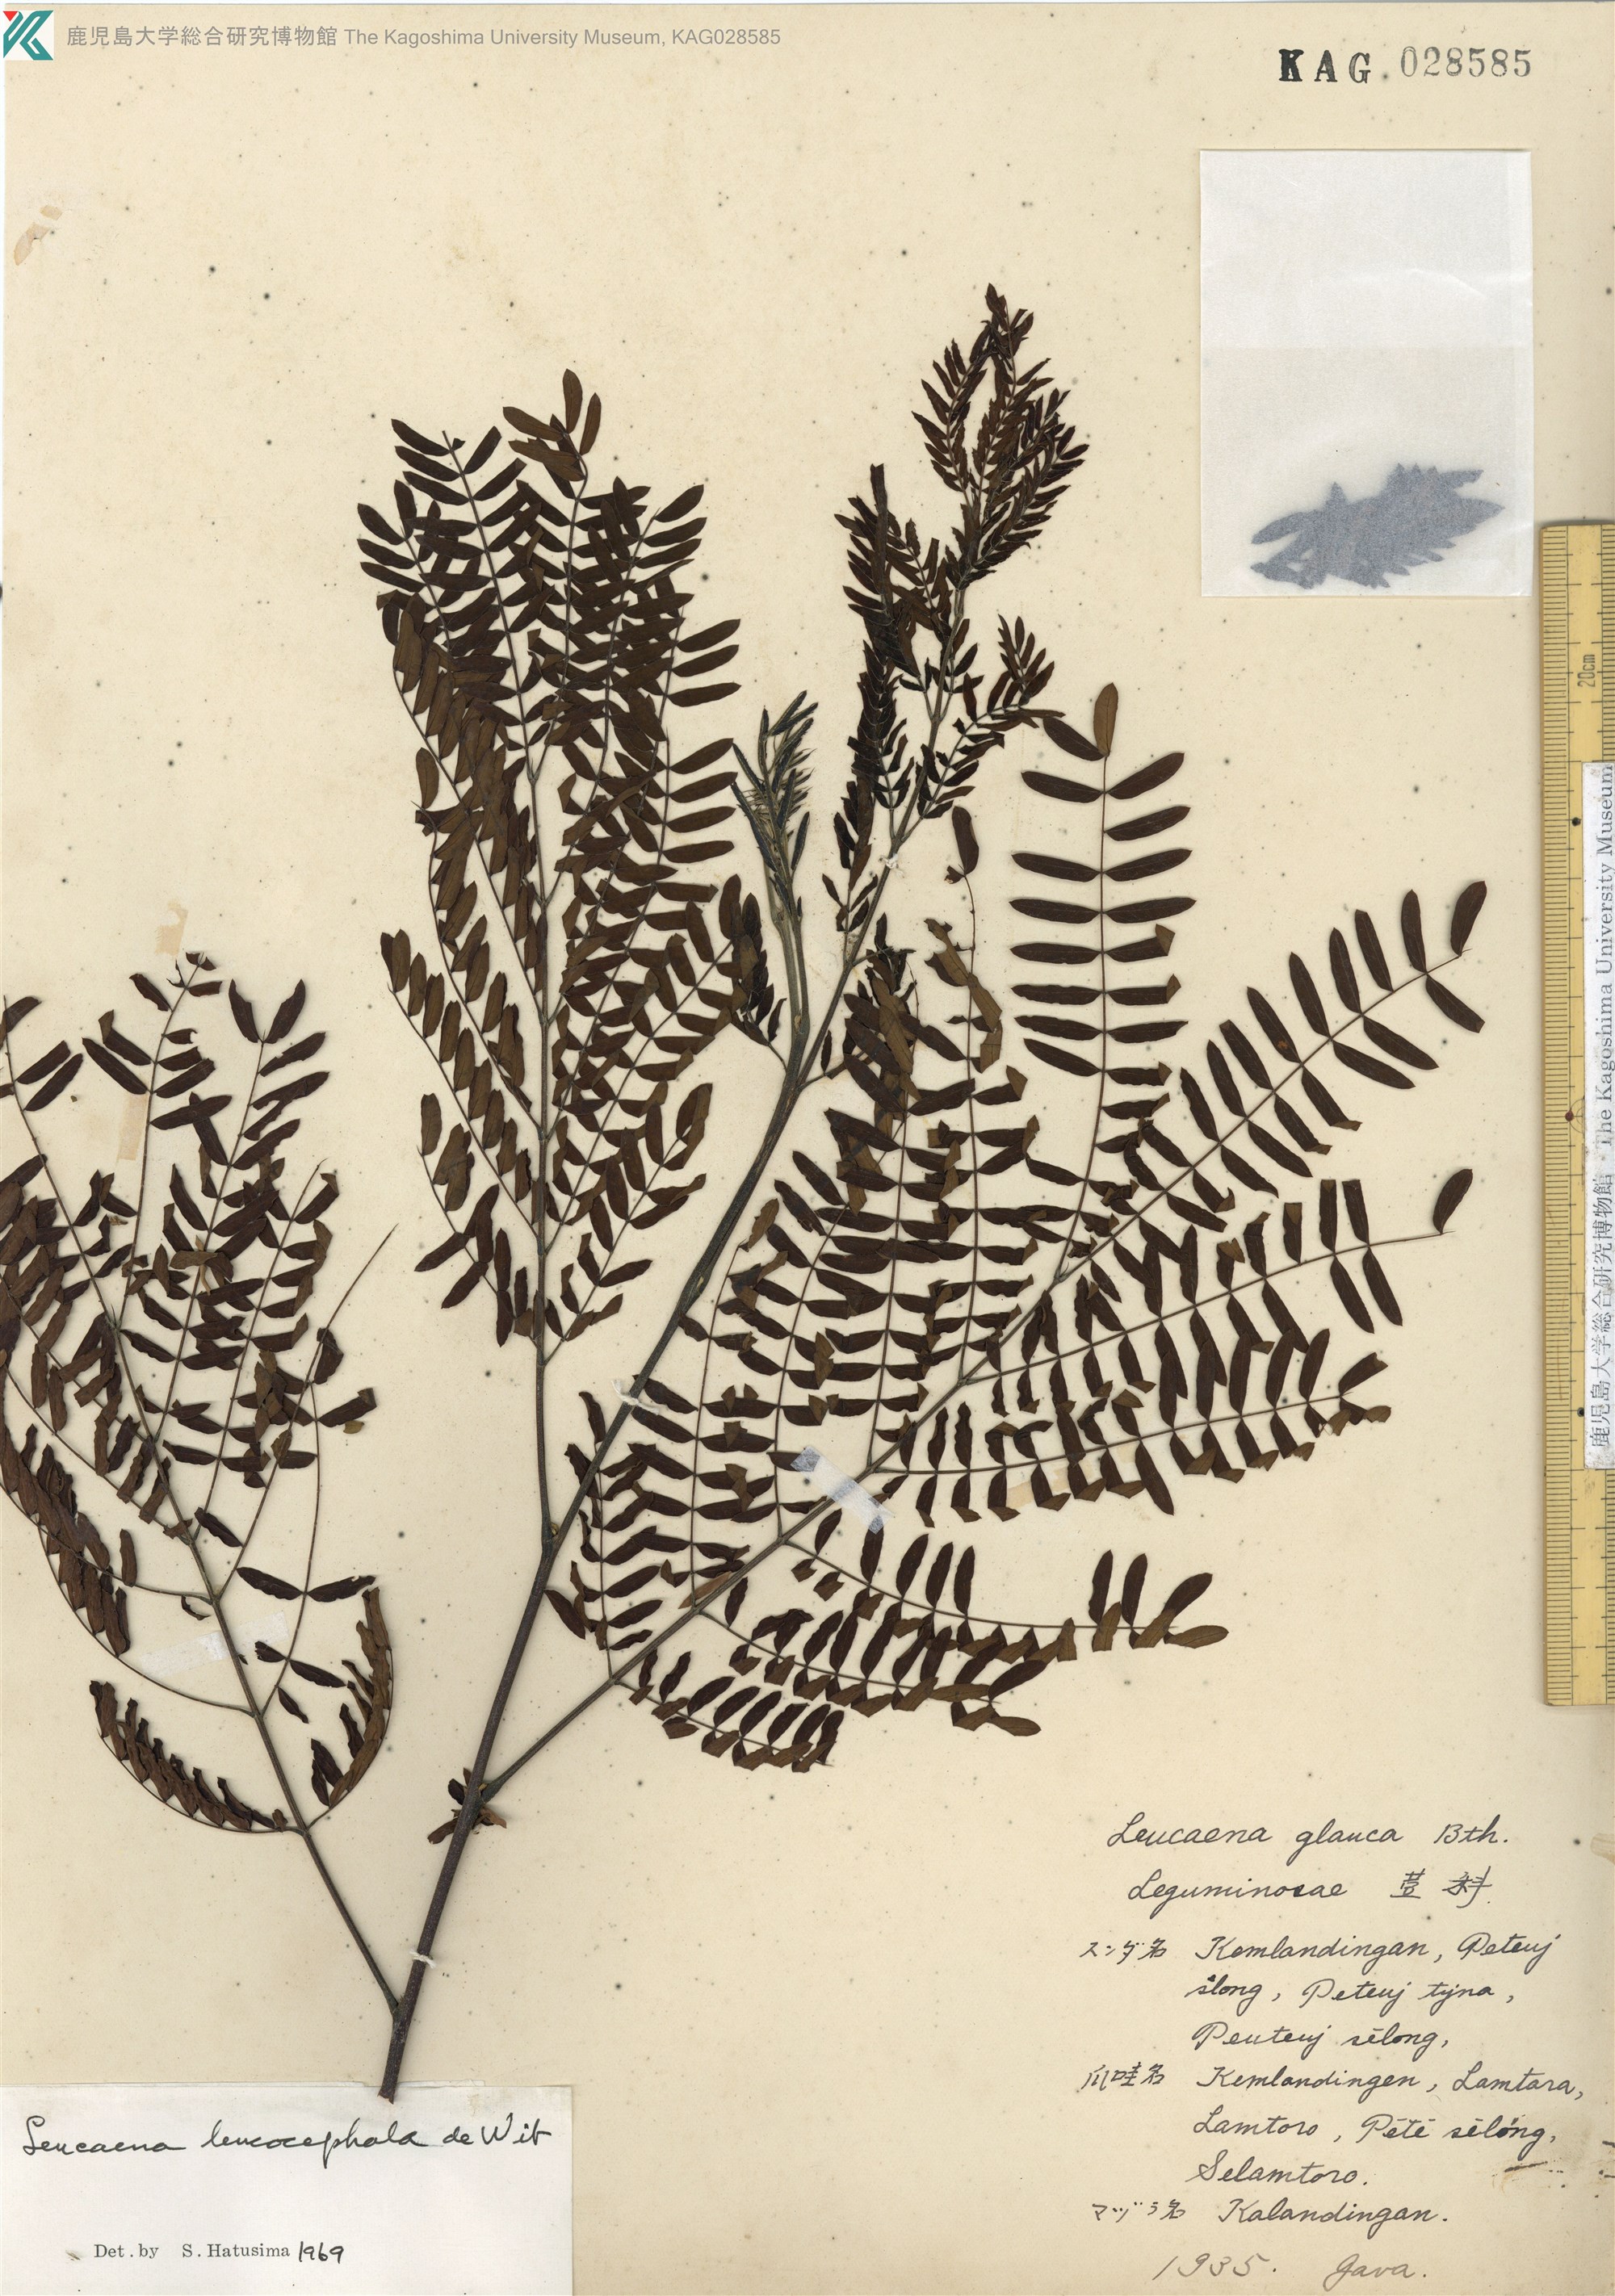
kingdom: Plantae
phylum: Tracheophyta
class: Magnoliopsida
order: Fabales
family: Fabaceae
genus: Leucaena
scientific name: Leucaena leucocephala
